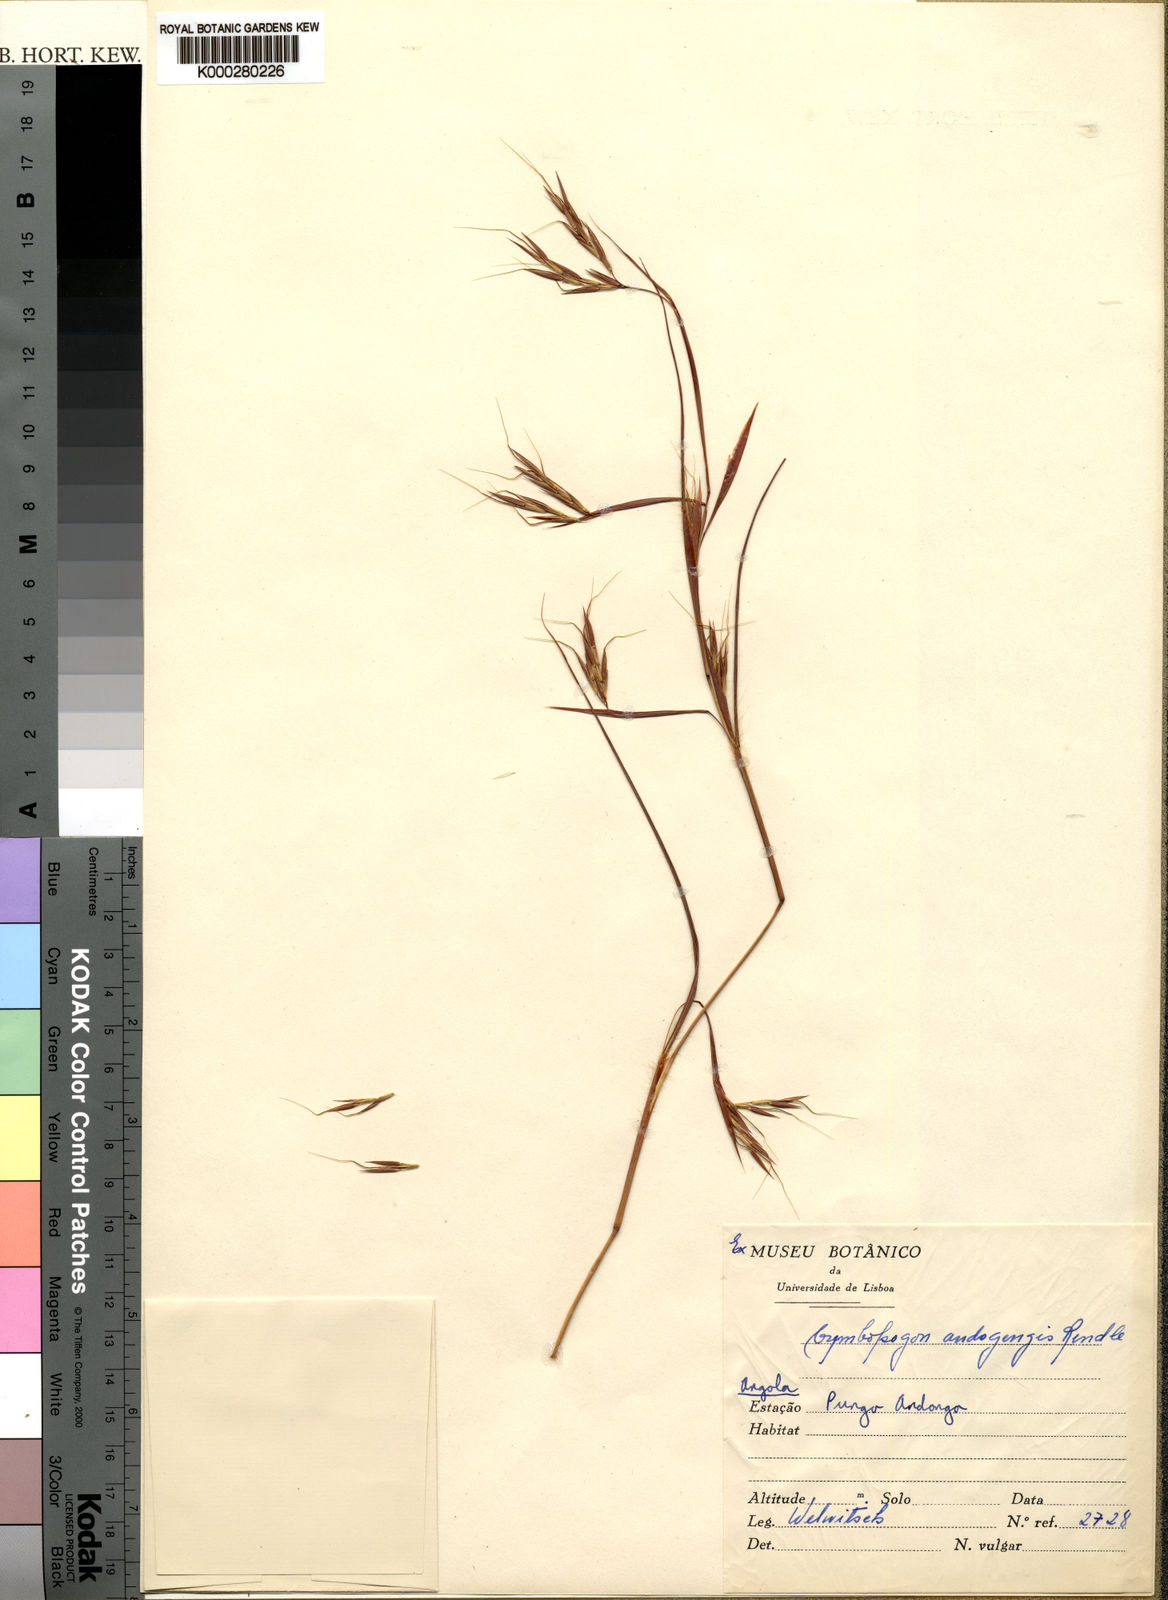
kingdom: Plantae
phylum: Tracheophyta
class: Liliopsida
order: Poales
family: Poaceae
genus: Hyparrhenia
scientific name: Hyparrhenia andongensis
